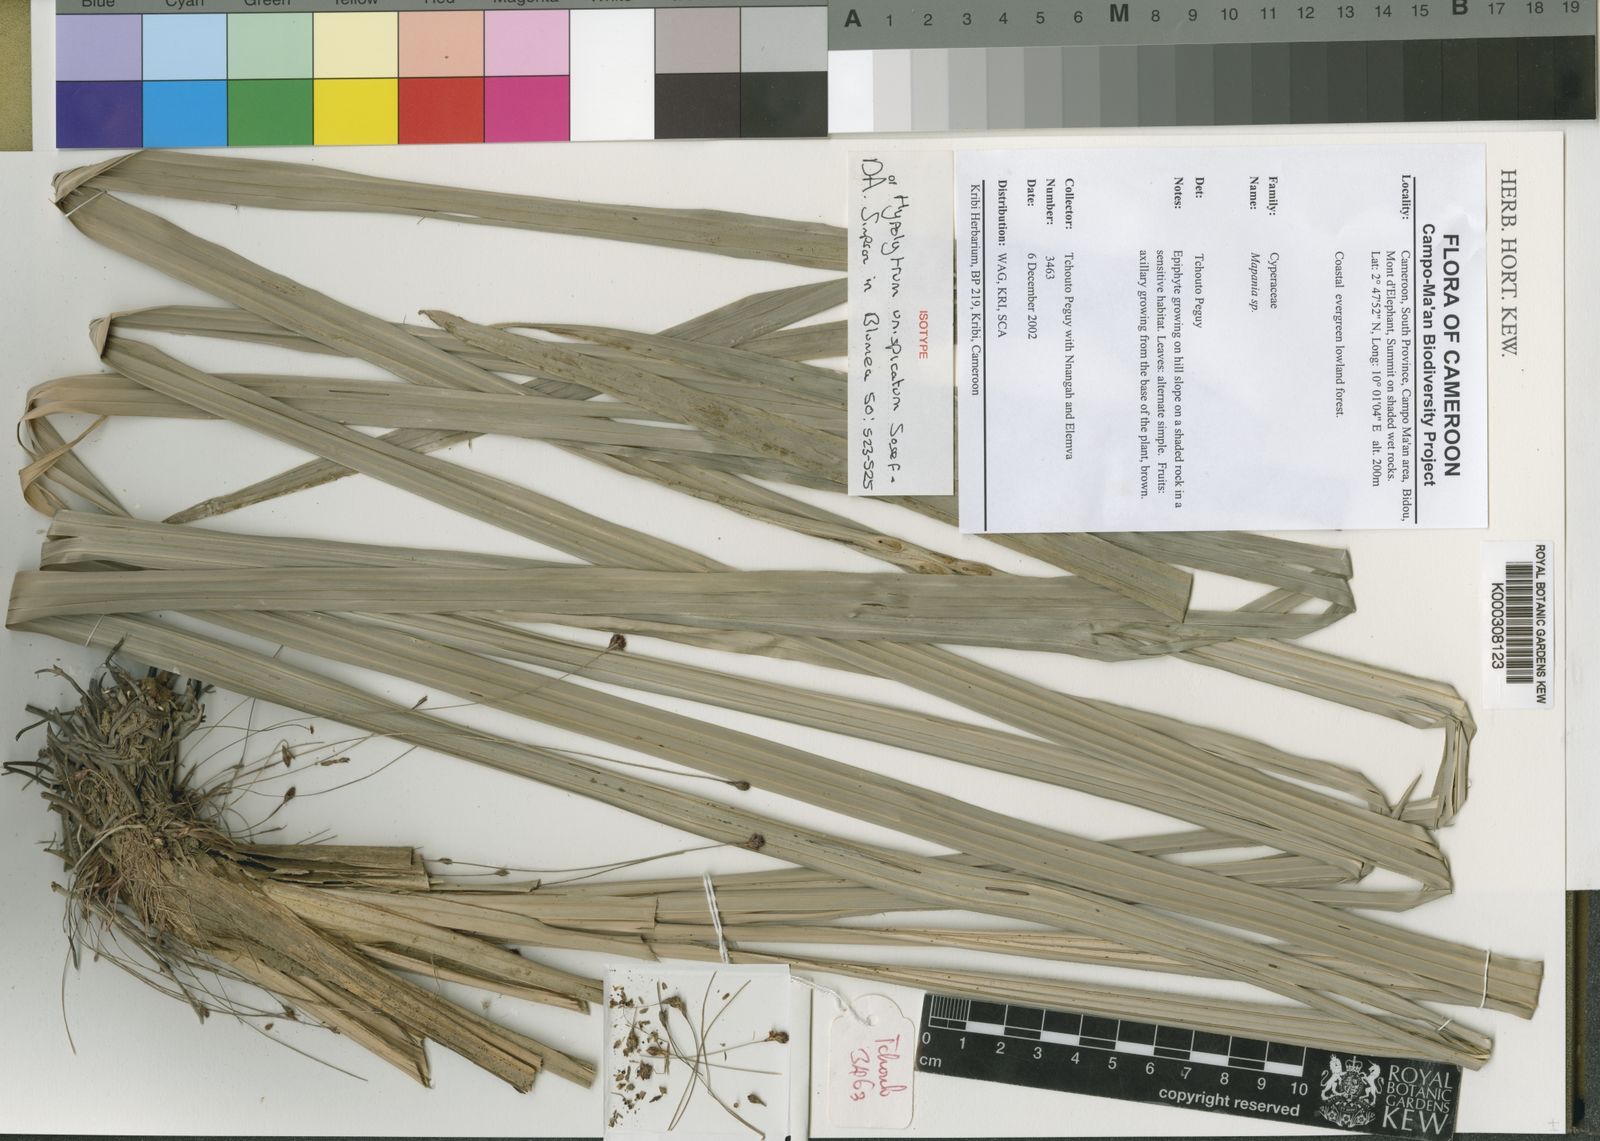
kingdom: Plantae
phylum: Tracheophyta
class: Liliopsida
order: Poales
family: Cyperaceae
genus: Hypolytrum
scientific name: Hypolytrum unispicatum
